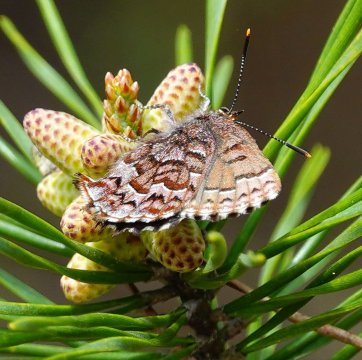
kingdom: Animalia
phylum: Arthropoda
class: Insecta
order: Lepidoptera
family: Lycaenidae
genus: Incisalia
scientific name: Incisalia niphon
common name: Eastern Pine Elfin
